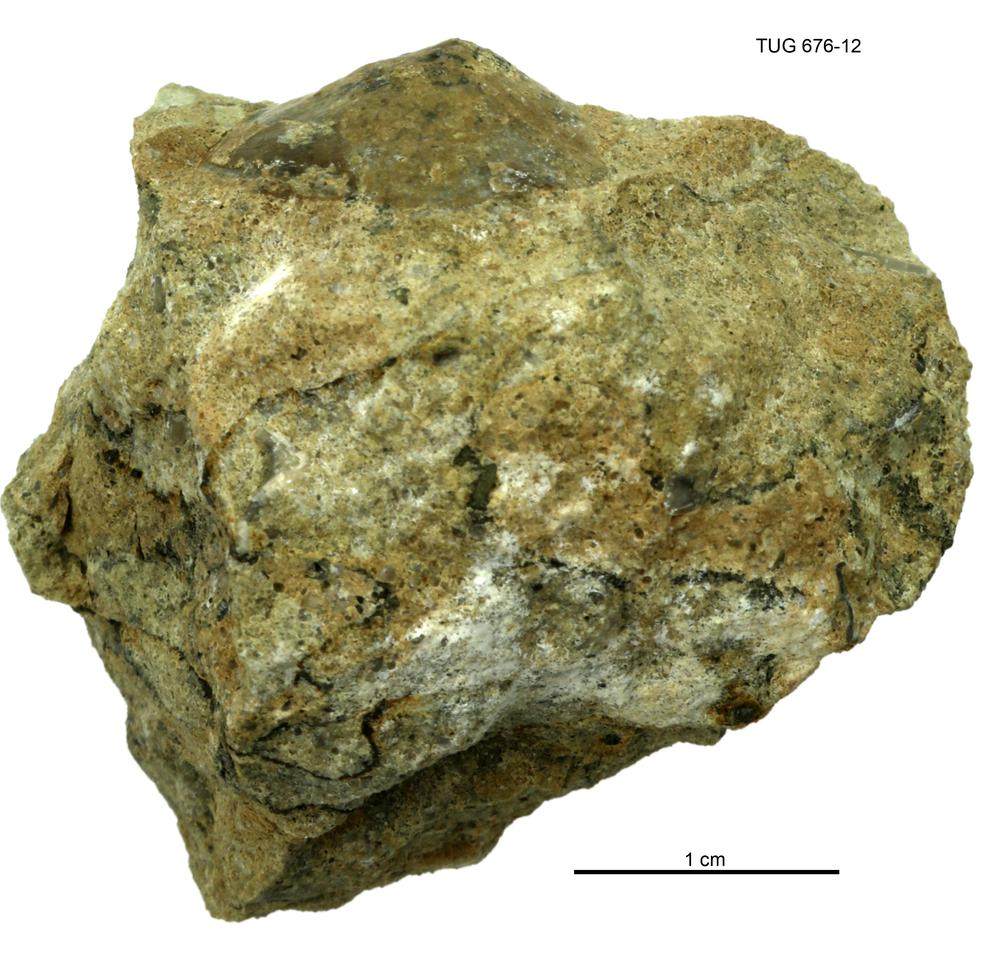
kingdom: Animalia
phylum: Mollusca
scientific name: Mollusca
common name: Mollusca
